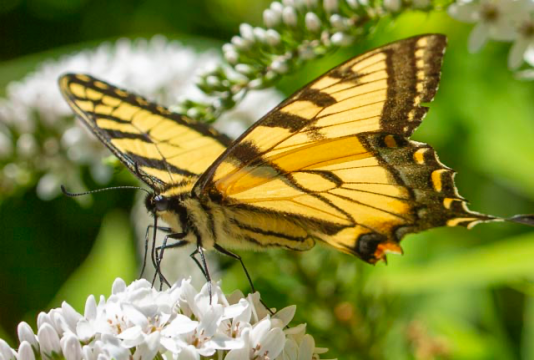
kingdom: Animalia
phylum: Arthropoda
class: Insecta
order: Lepidoptera
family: Papilionidae
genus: Pterourus
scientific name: Pterourus canadensis
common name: Canadian Tiger Swallowtail
